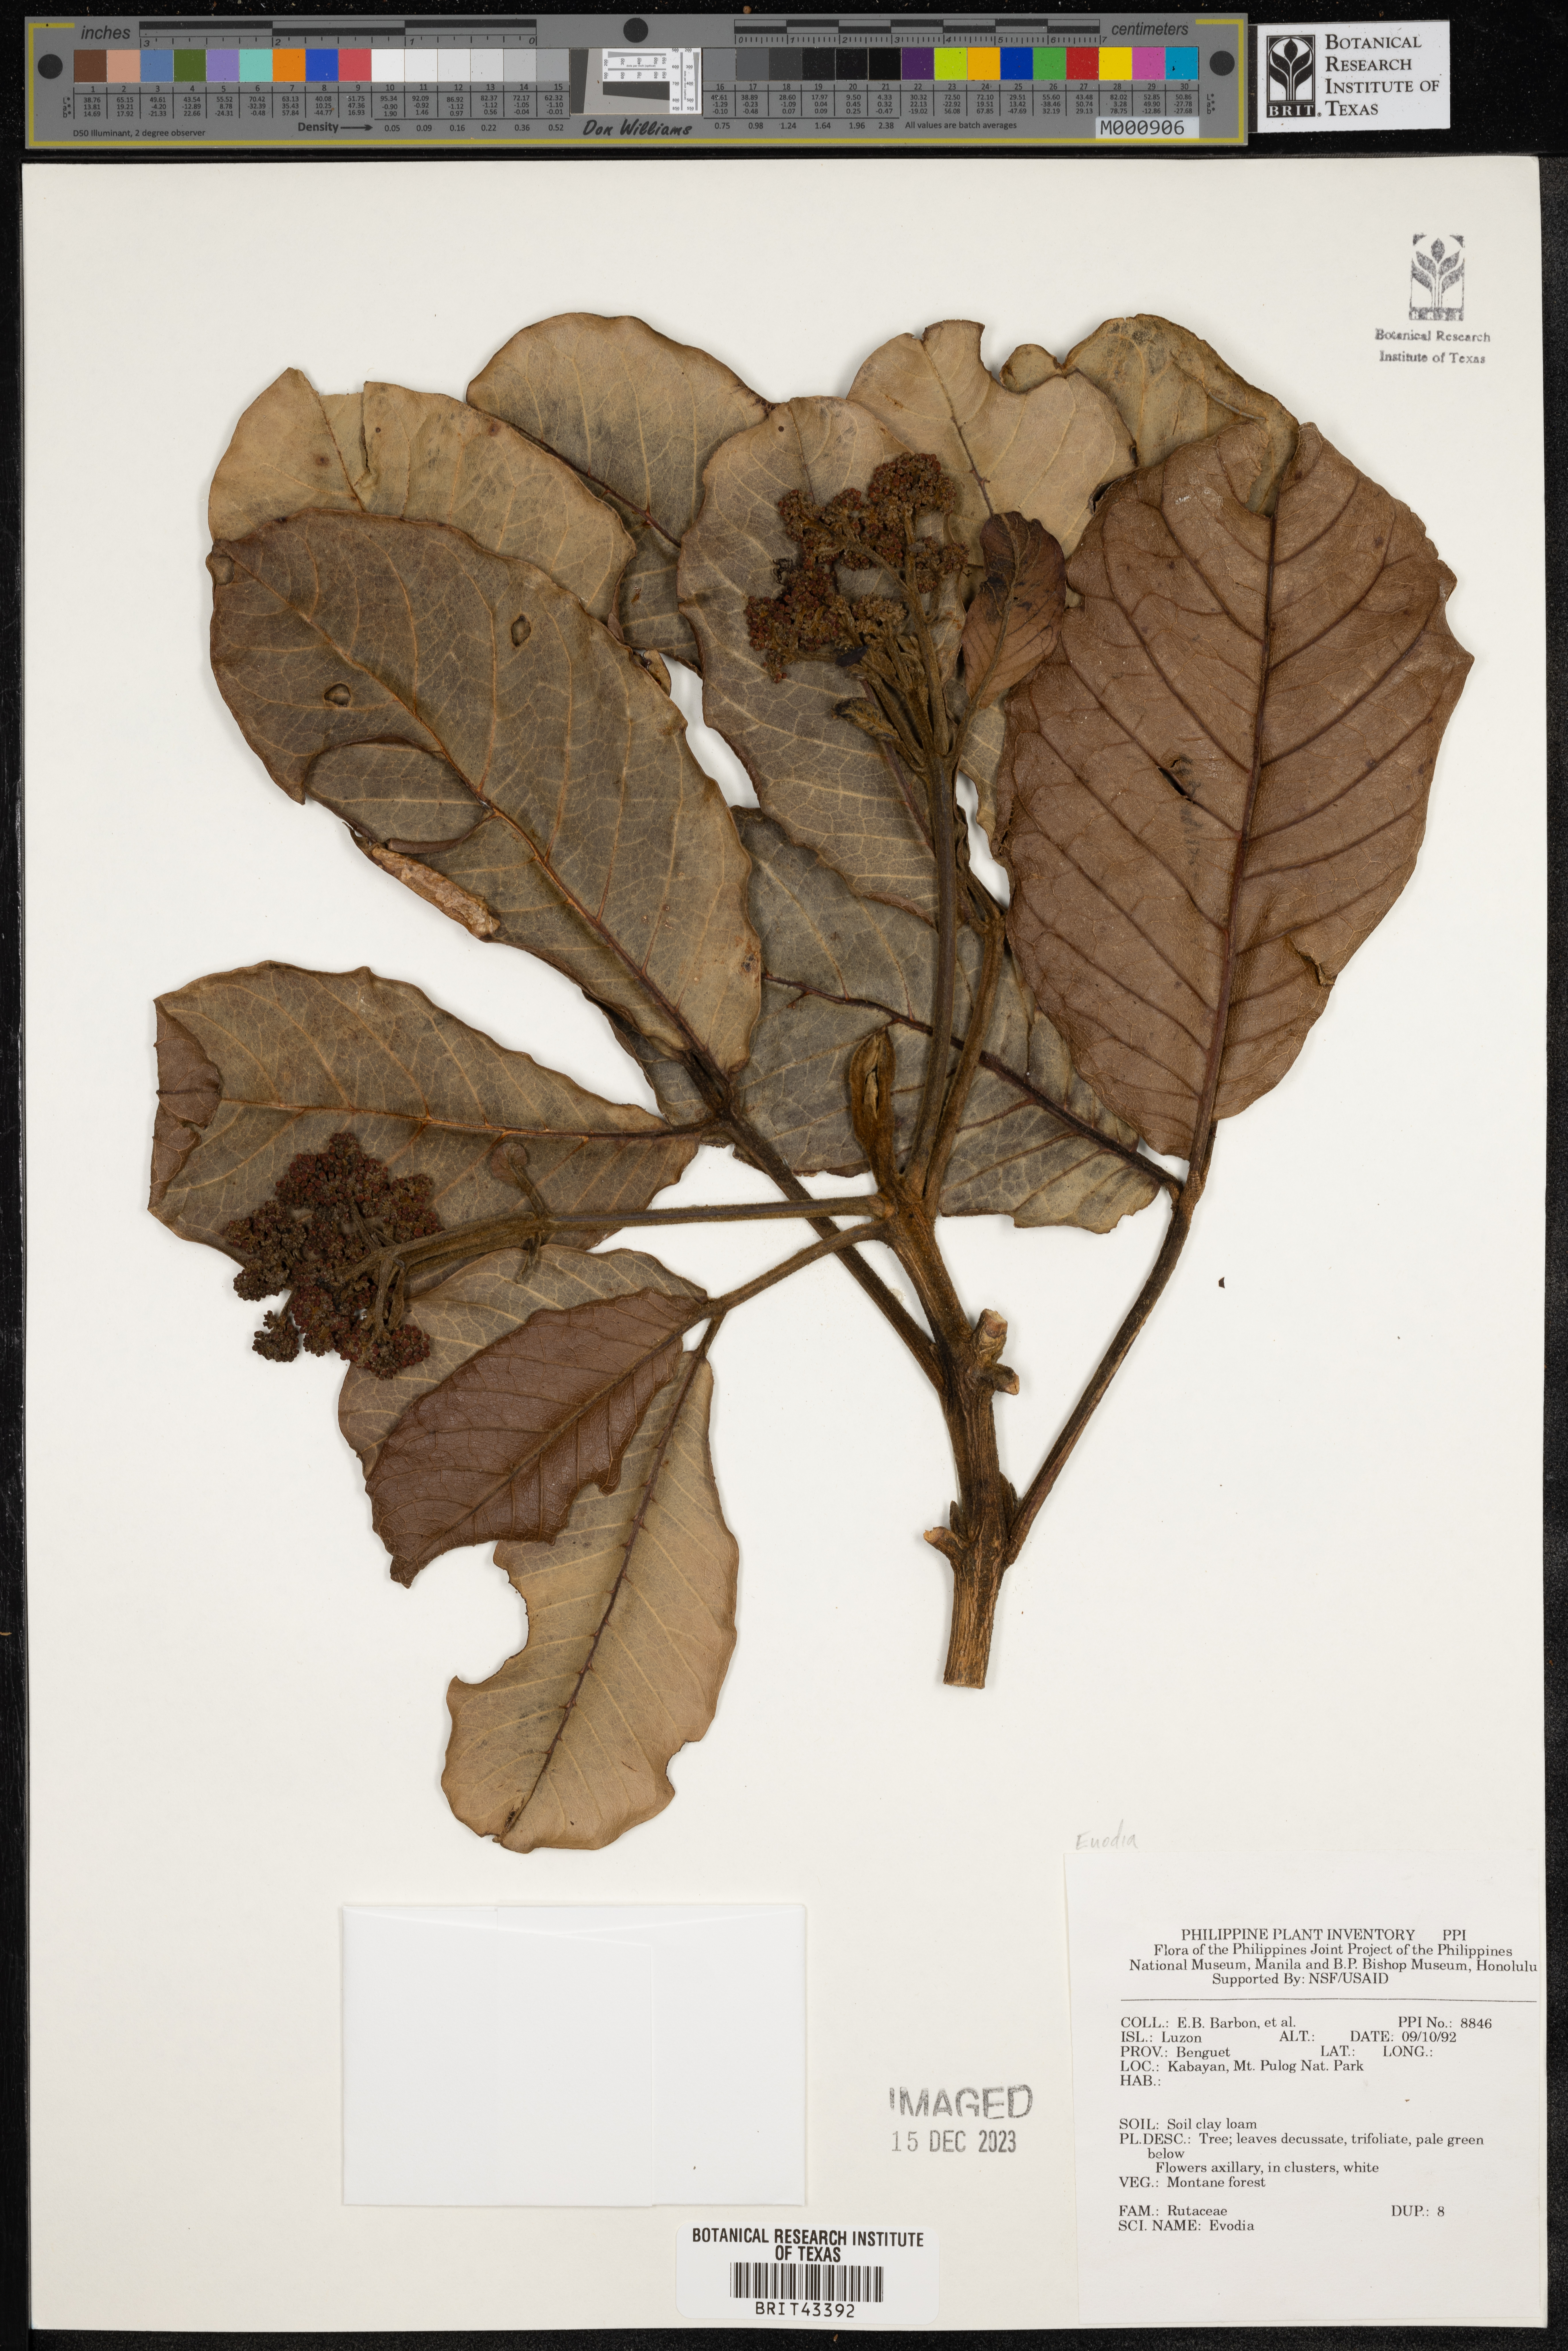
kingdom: Plantae
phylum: Tracheophyta
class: Magnoliopsida
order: Sapindales
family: Rutaceae
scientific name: Rutaceae
